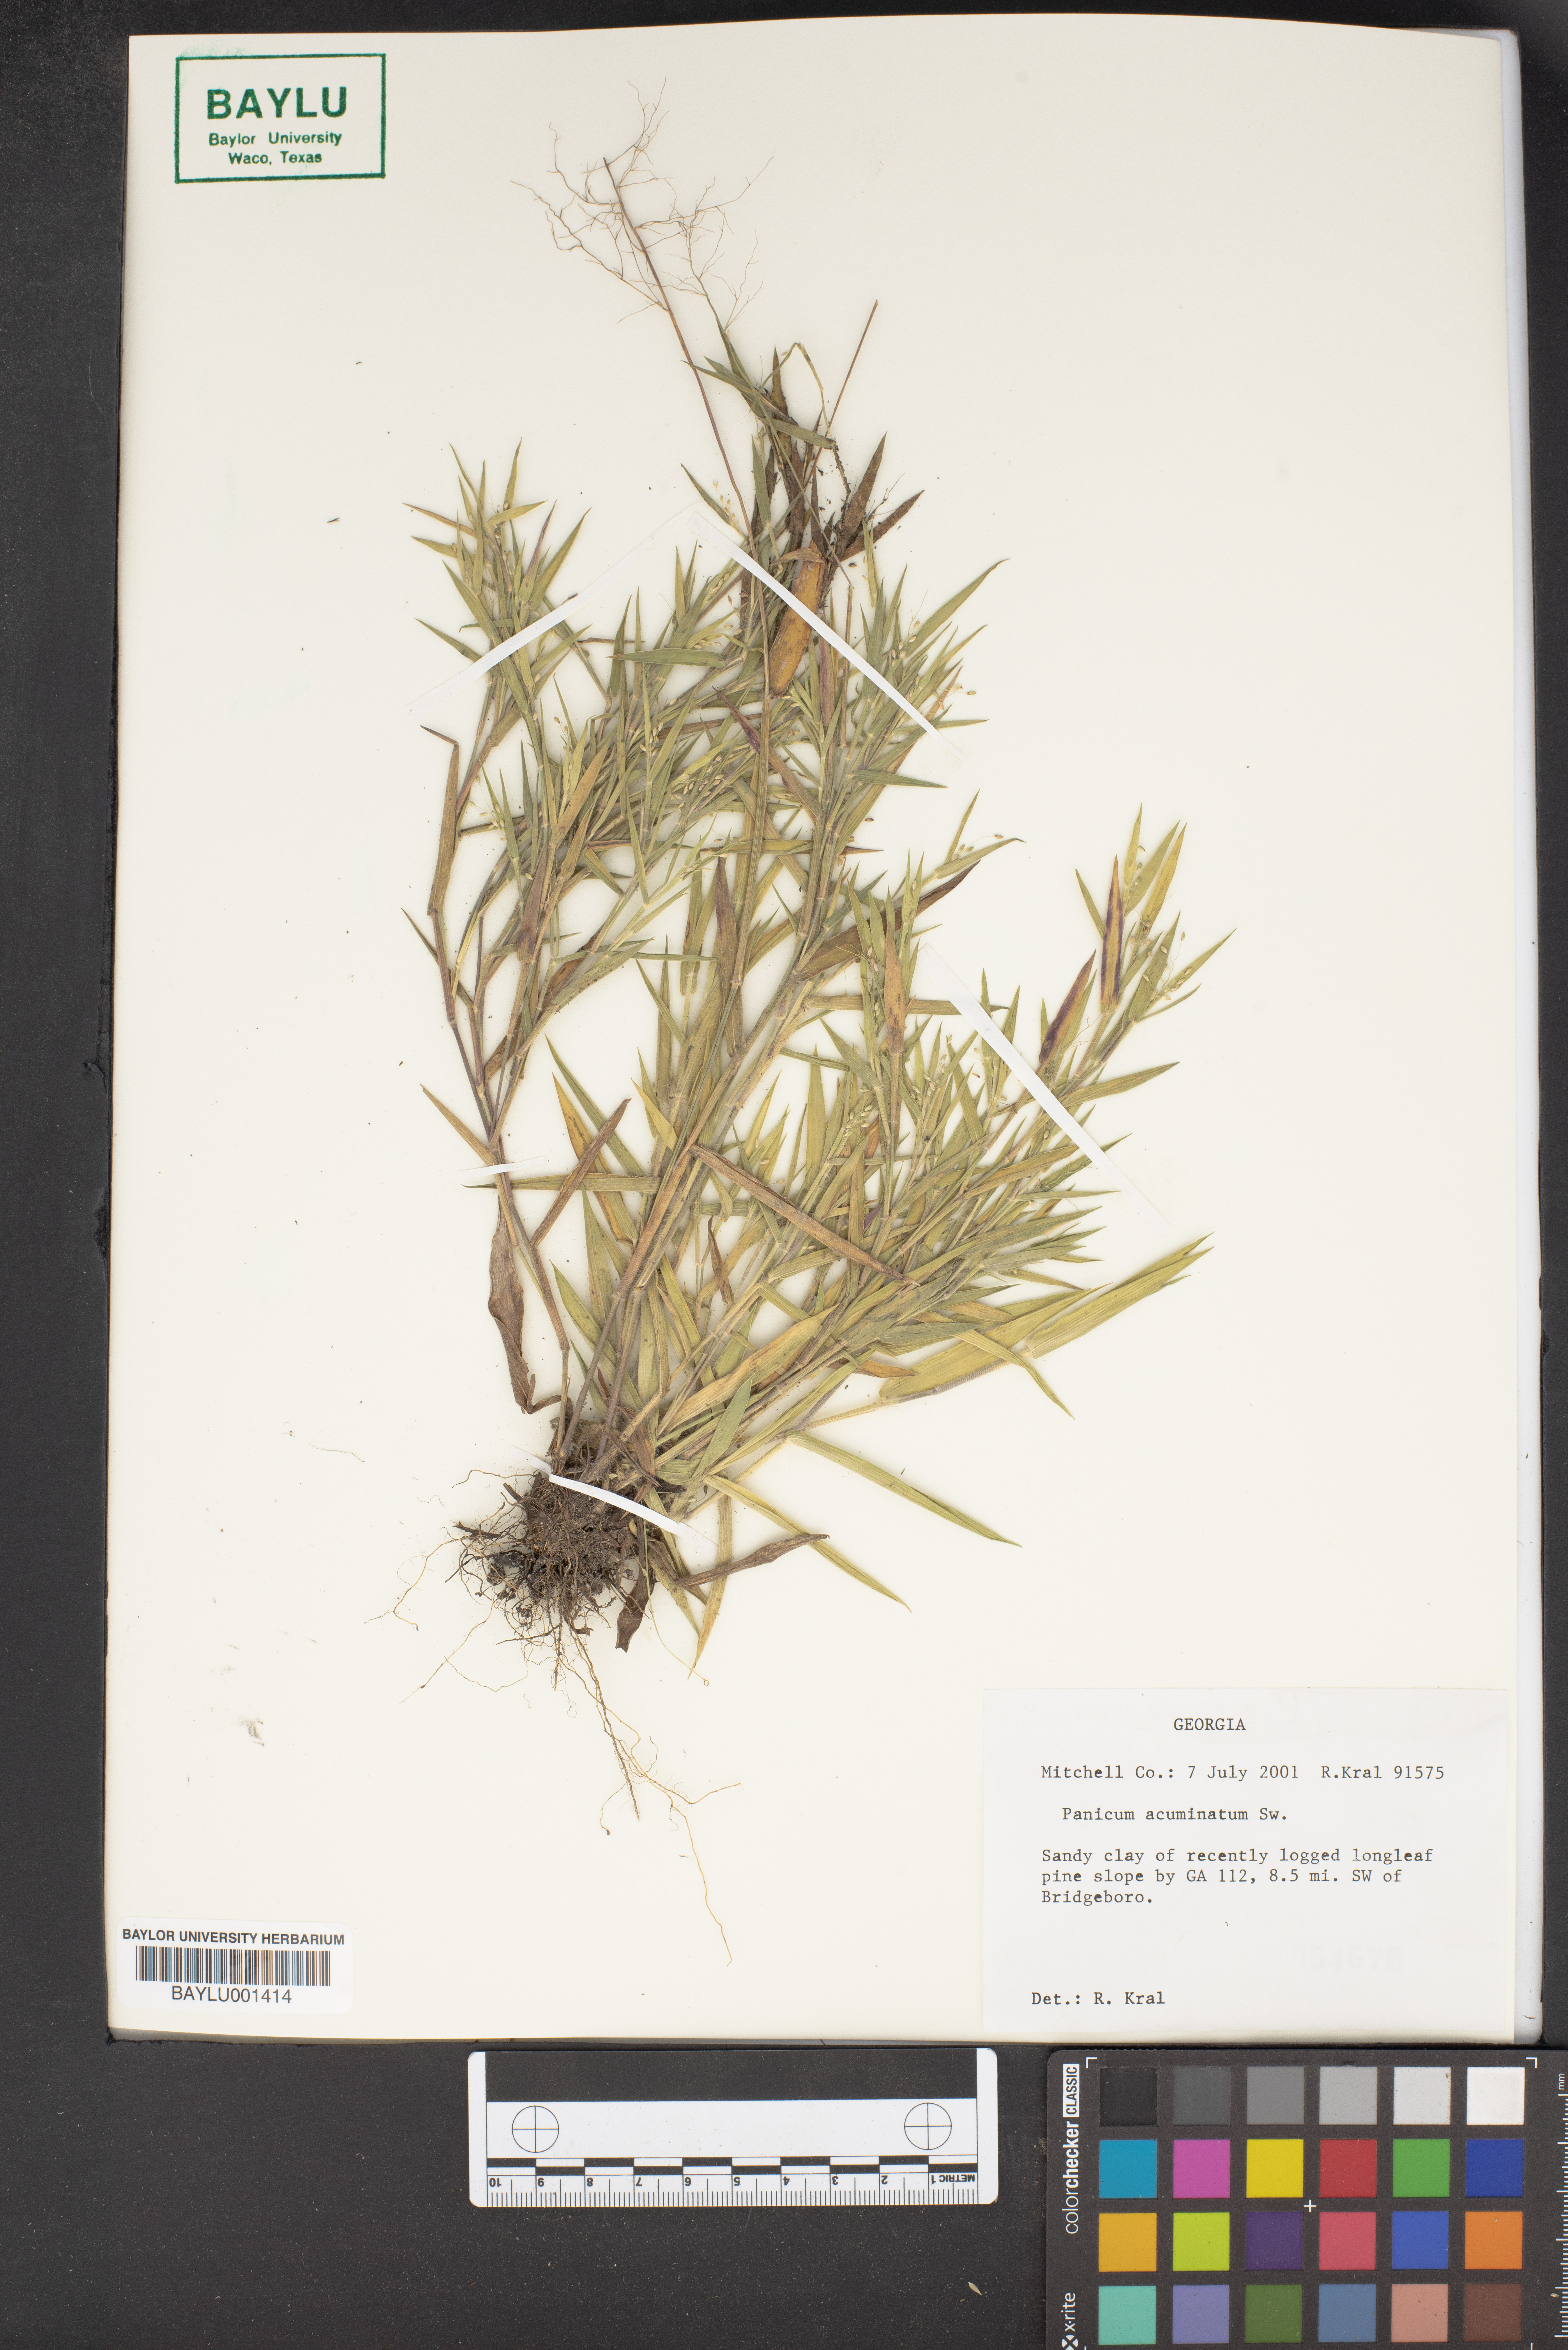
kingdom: Plantae
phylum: Tracheophyta
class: Liliopsida
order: Poales
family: Poaceae
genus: Dichanthelium
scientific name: Dichanthelium acuminatum
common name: Hairy panic grass
